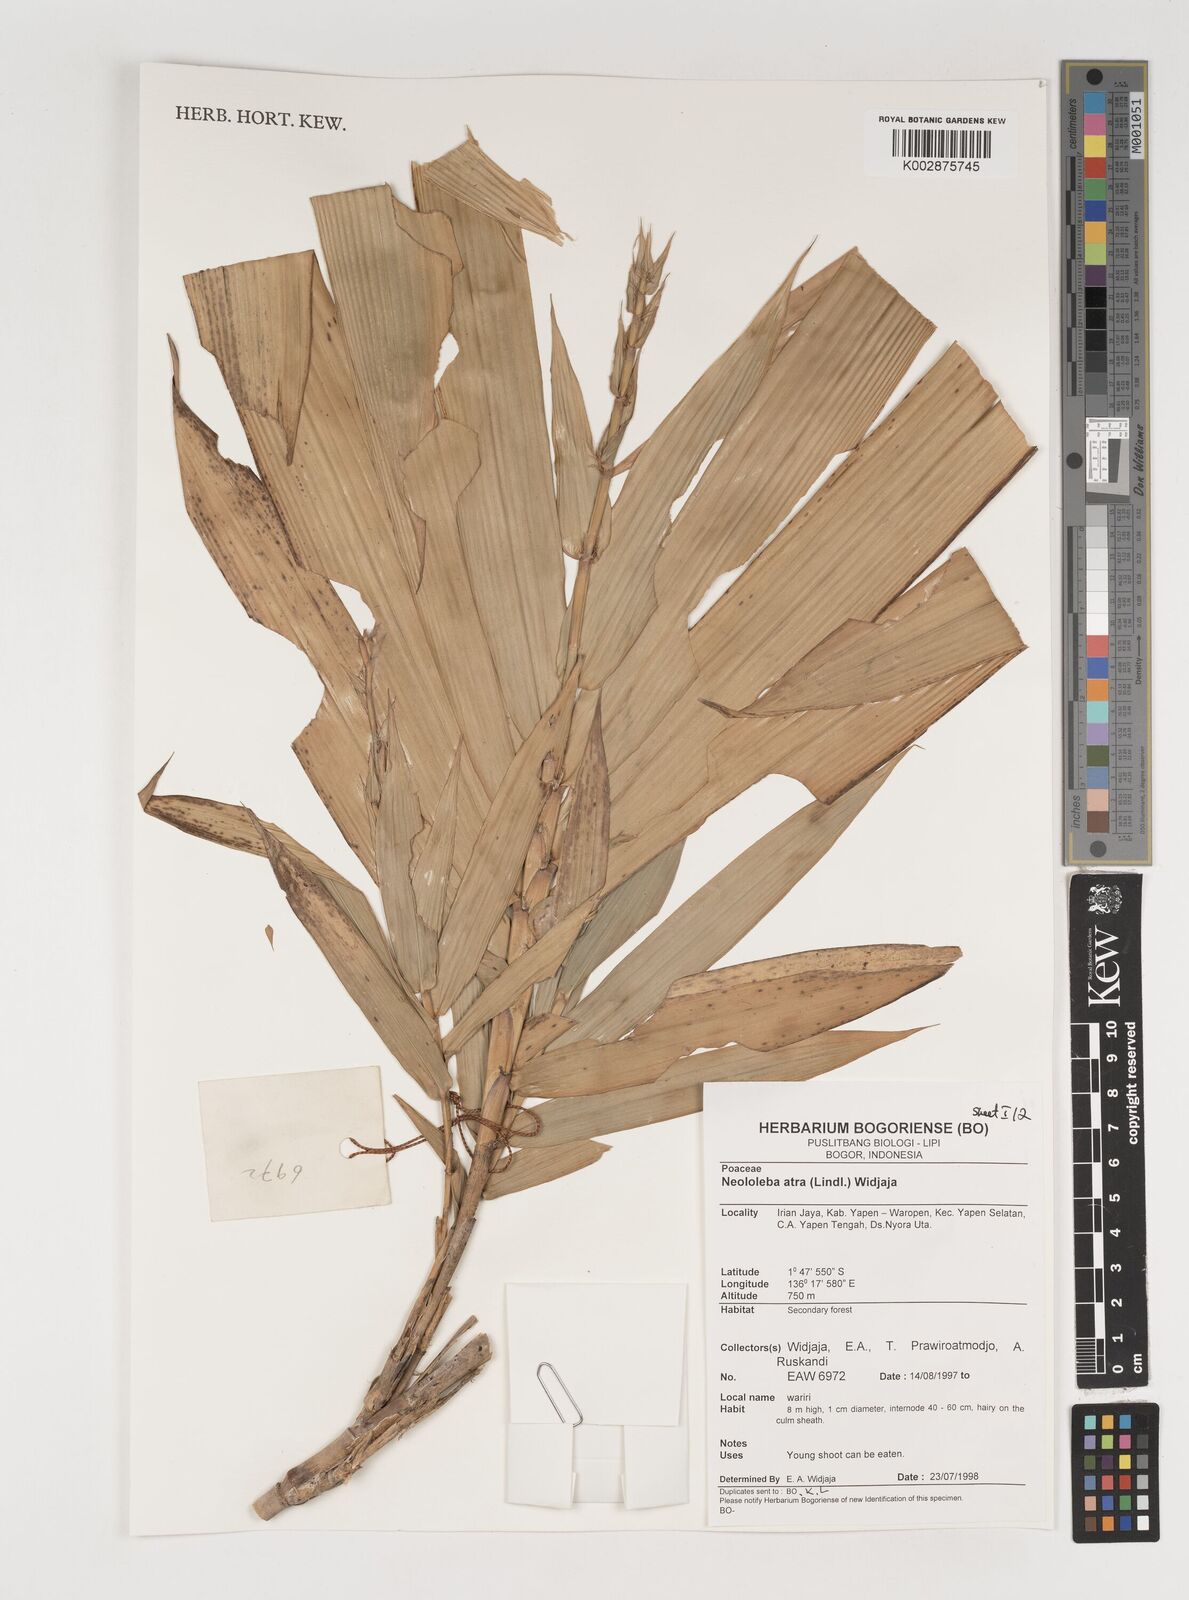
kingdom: Plantae
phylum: Tracheophyta
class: Liliopsida
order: Poales
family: Poaceae
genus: Neololeba
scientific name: Neololeba atra
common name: Cape bamboo
